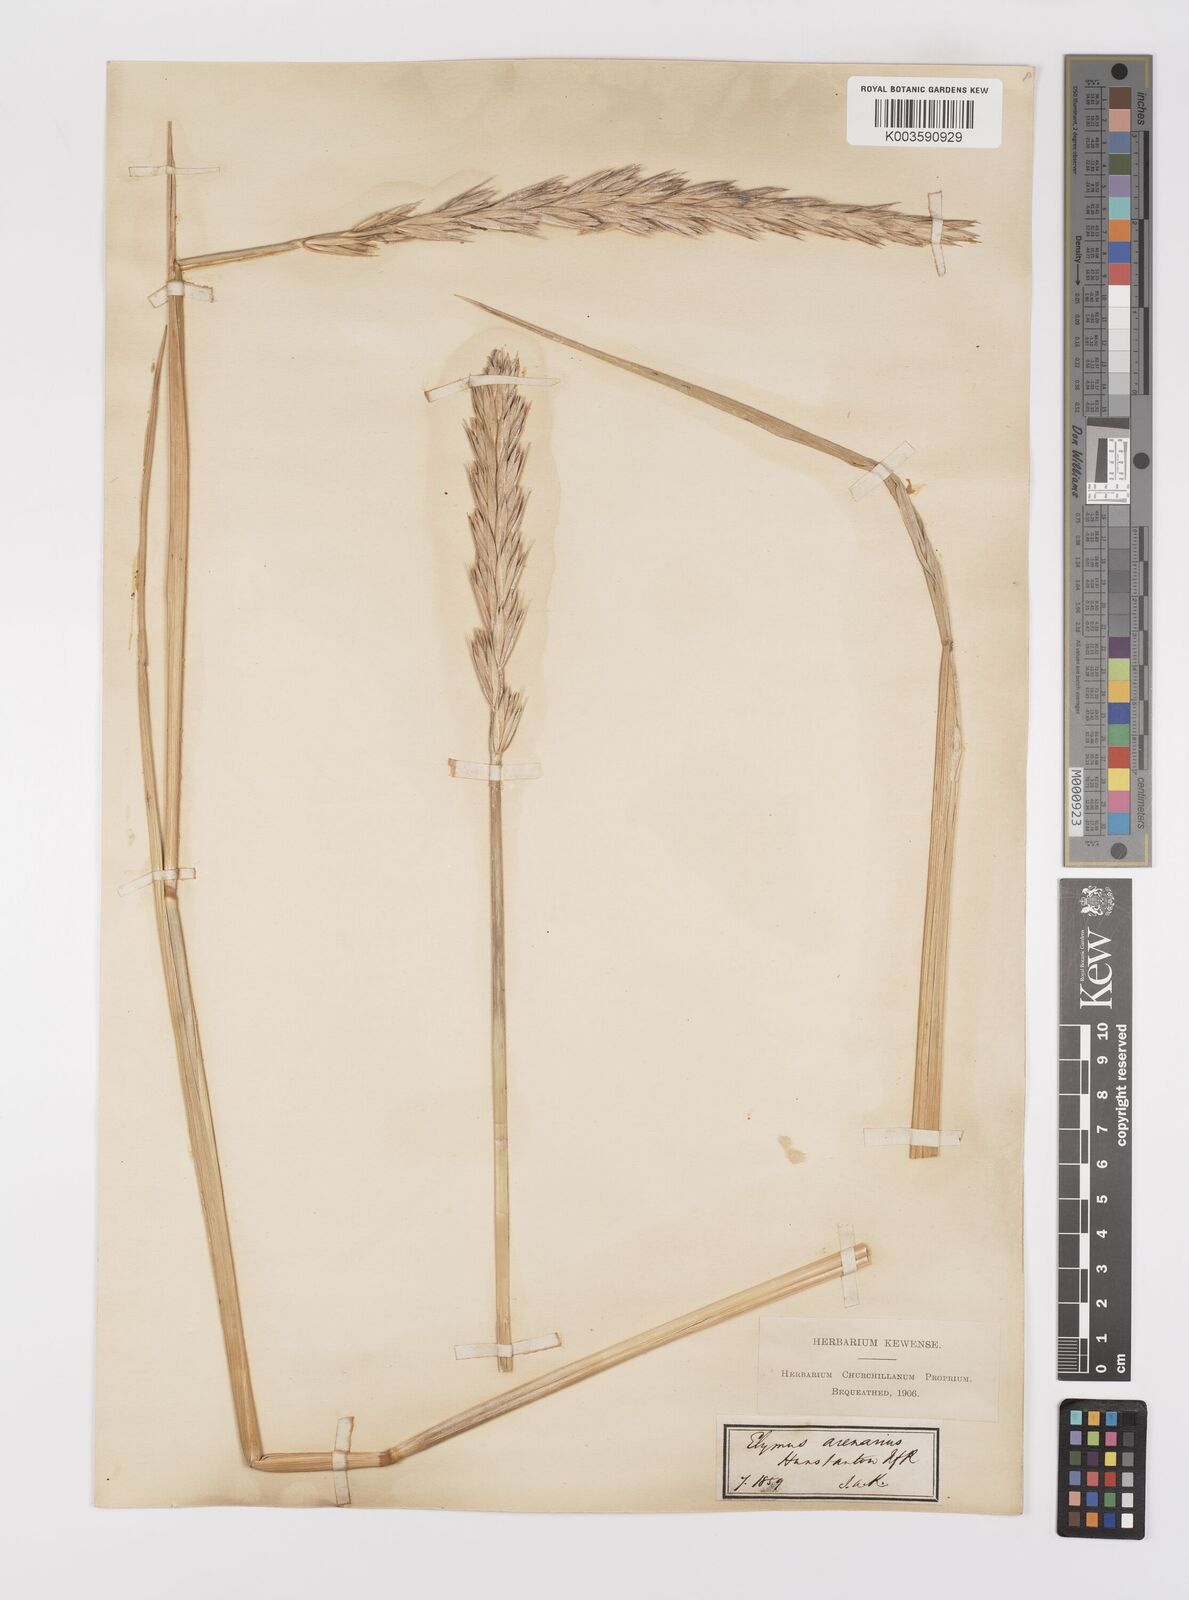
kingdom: Plantae
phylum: Tracheophyta
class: Liliopsida
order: Poales
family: Poaceae
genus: Leymus
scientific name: Leymus arenarius
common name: Lyme-grass
